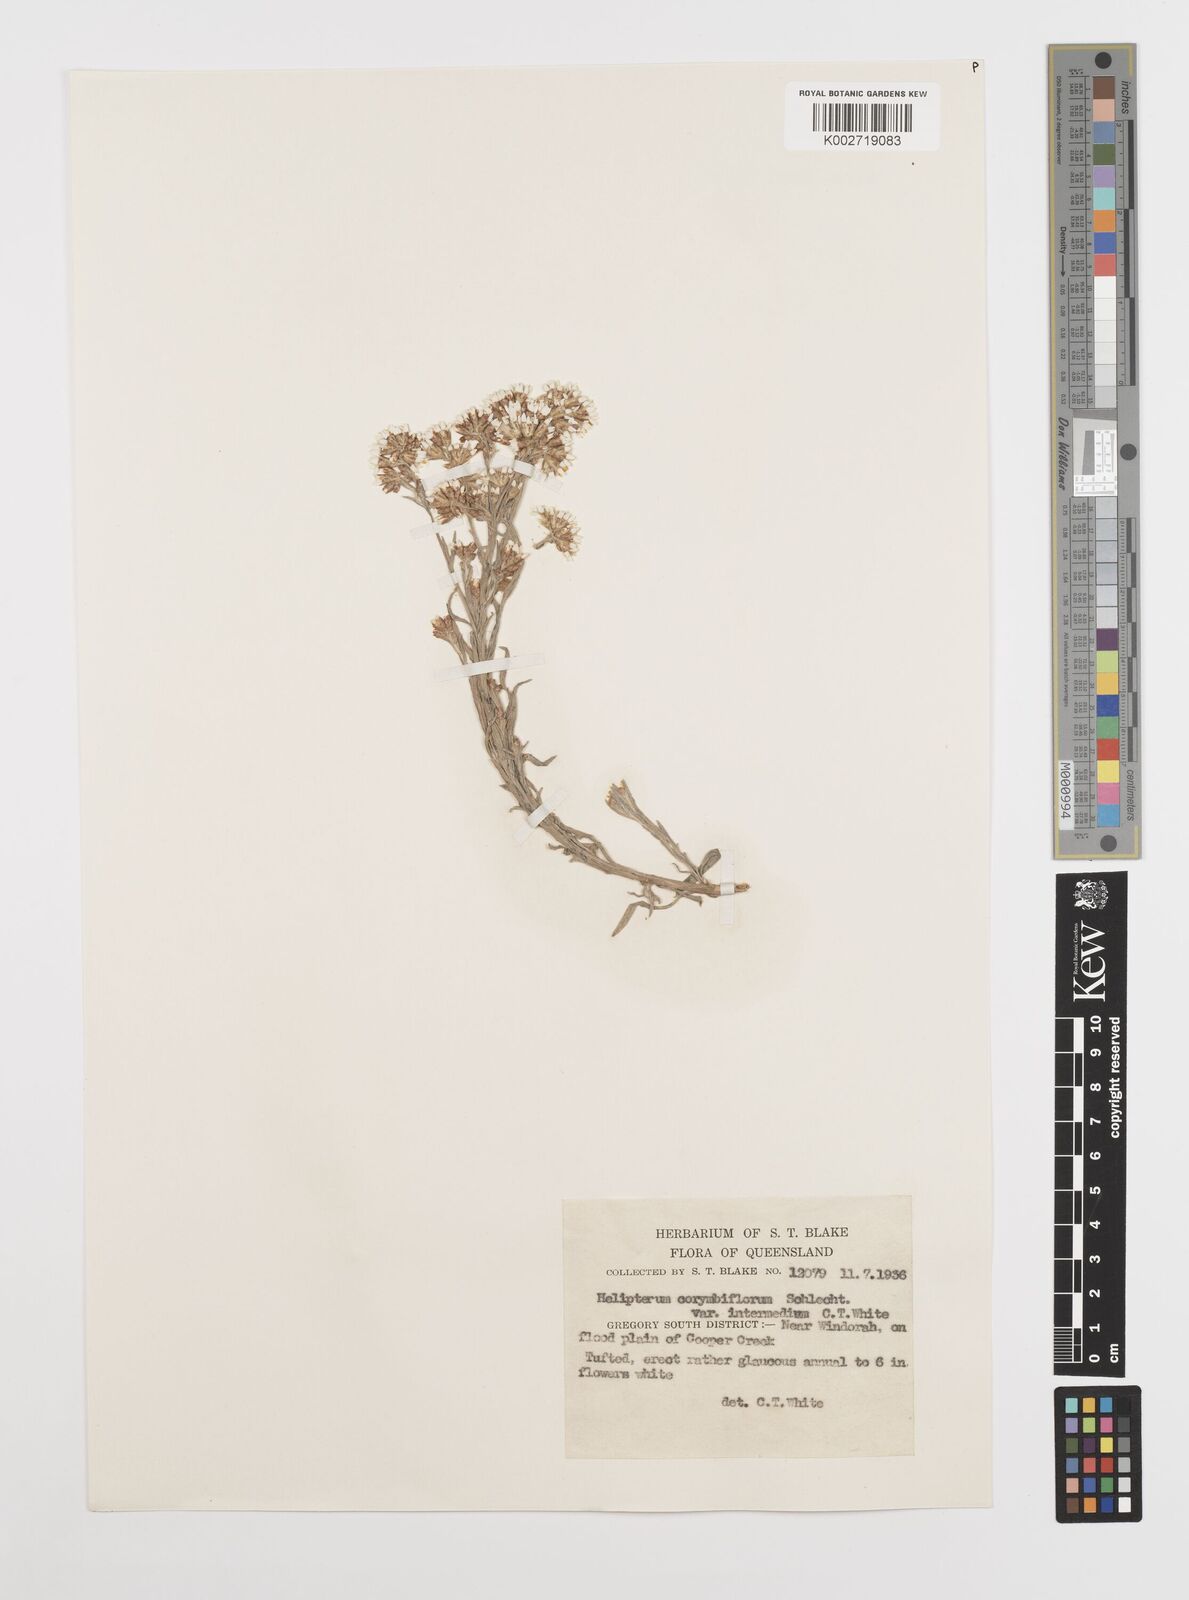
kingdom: Plantae
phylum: Tracheophyta
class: Magnoliopsida
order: Asterales
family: Asteraceae
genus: Rhodanthe
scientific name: Rhodanthe corymbiflora
